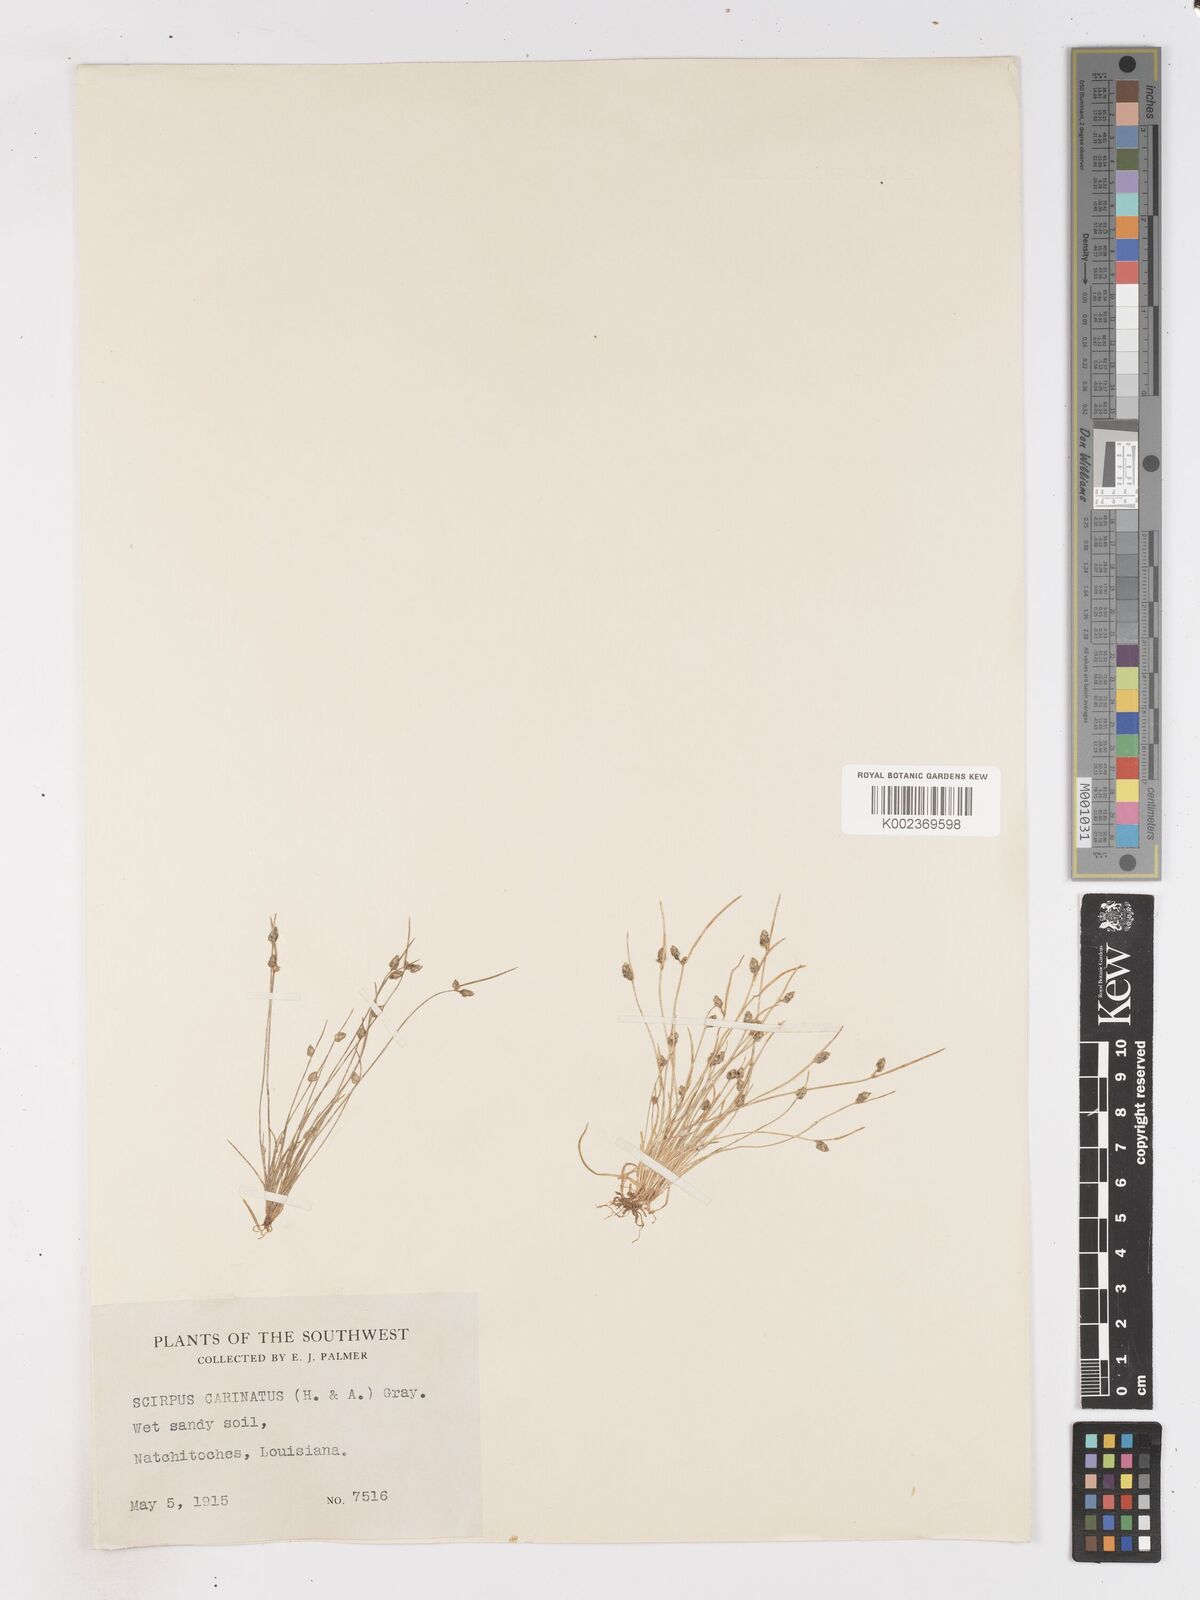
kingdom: Plantae
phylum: Tracheophyta
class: Liliopsida
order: Poales
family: Cyperaceae
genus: Isolepis
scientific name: Isolepis carinata
